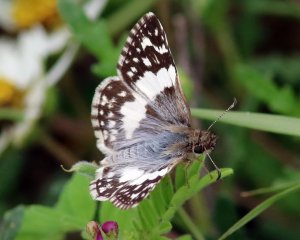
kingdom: Animalia
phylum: Arthropoda
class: Insecta
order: Lepidoptera
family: Hesperiidae
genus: Heliopyrgus
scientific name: Heliopyrgus domicella
